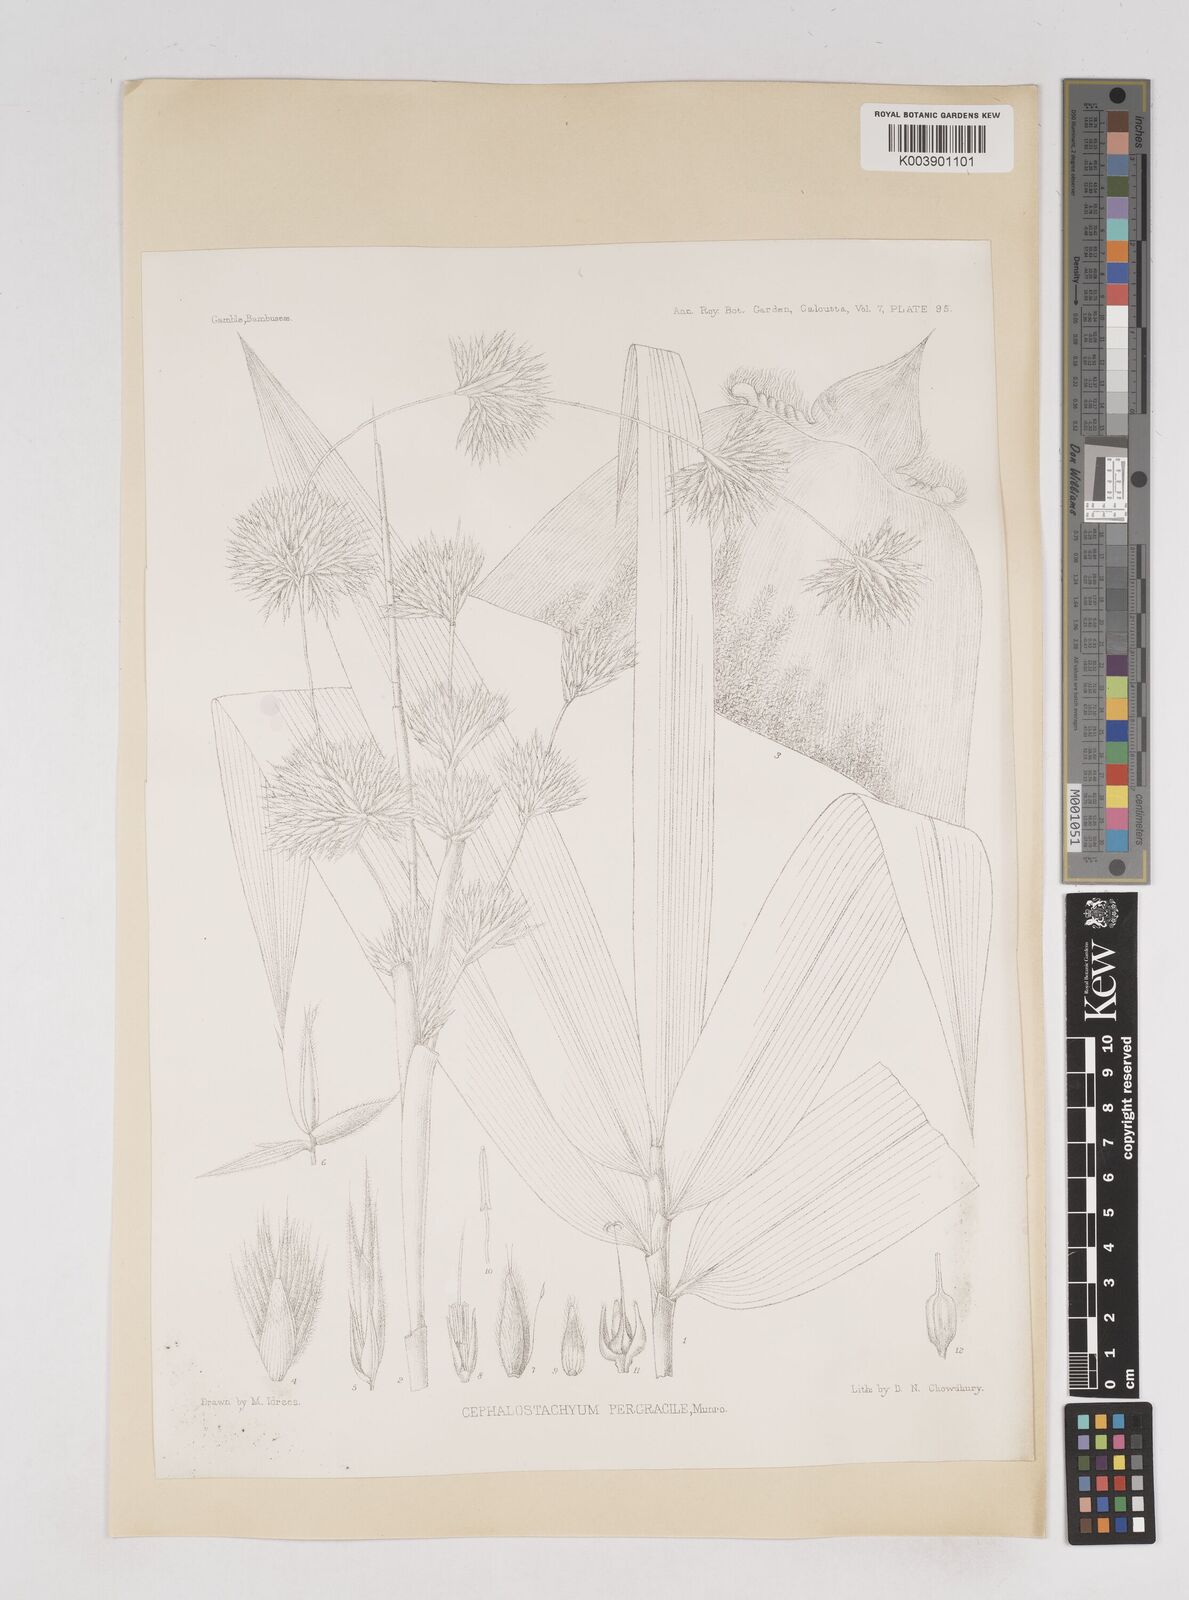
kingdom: Plantae
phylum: Tracheophyta
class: Liliopsida
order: Poales
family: Poaceae
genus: Schizostachyum
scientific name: Schizostachyum pergracile
